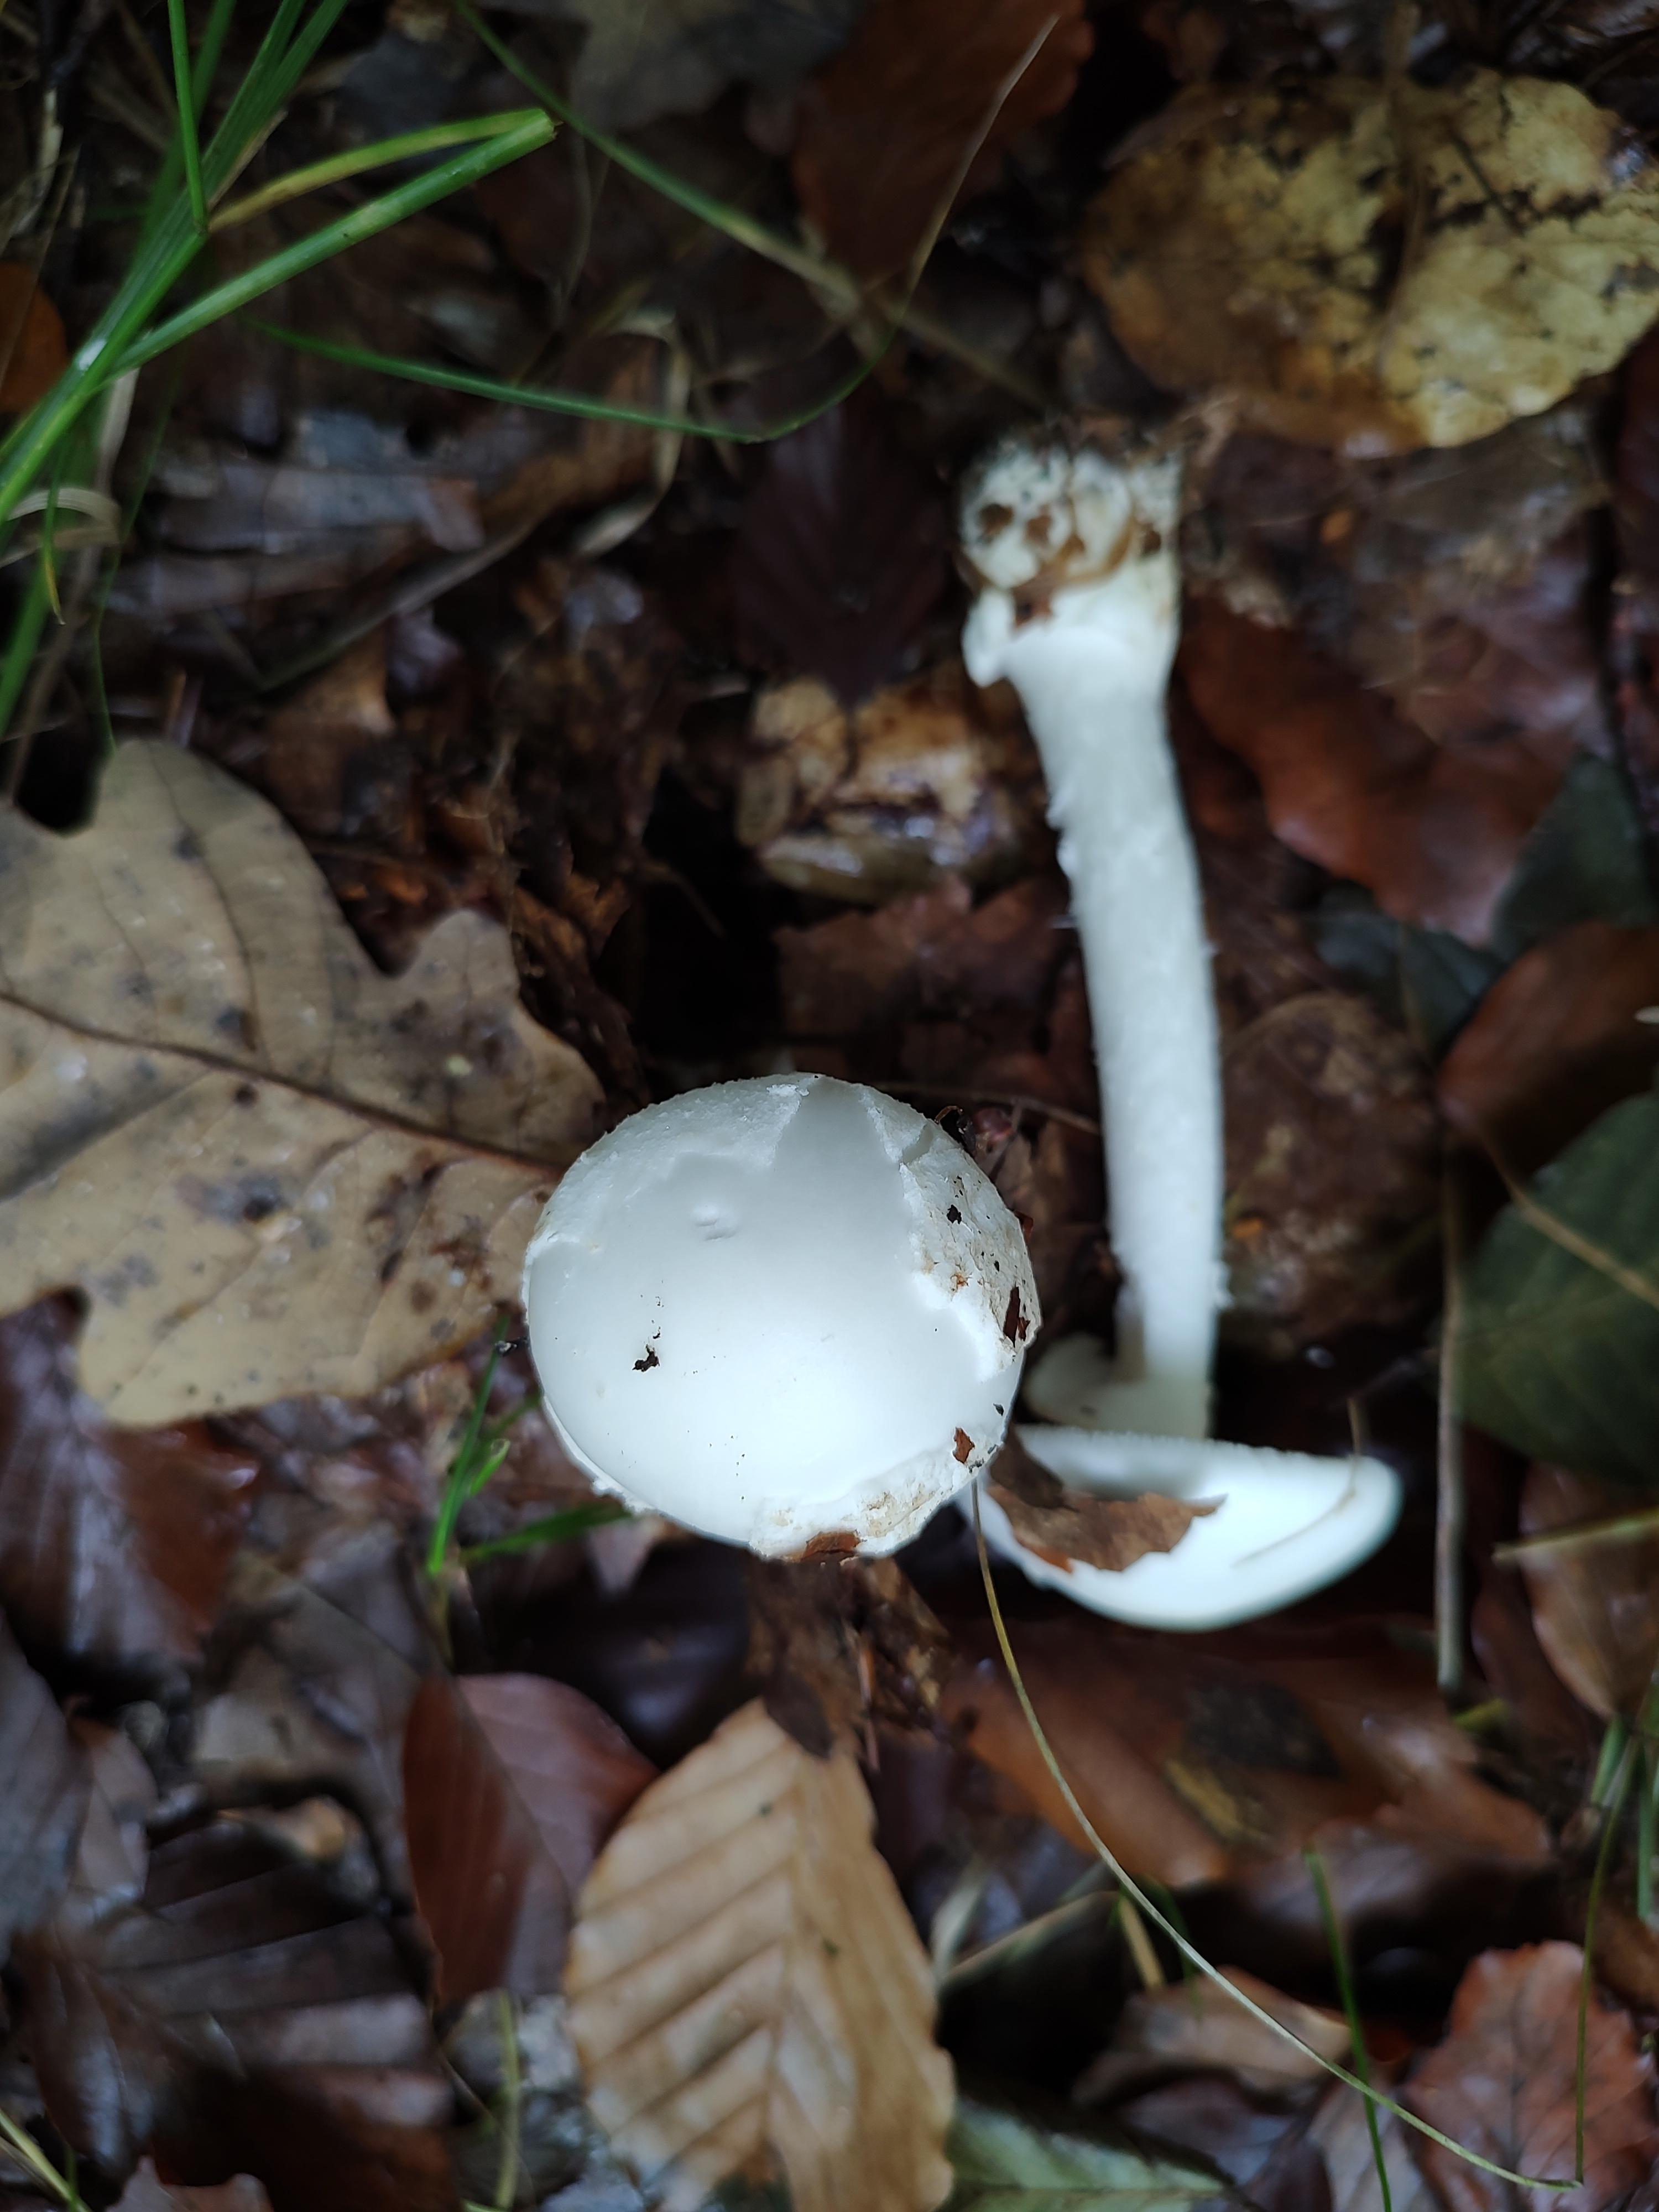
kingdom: Fungi
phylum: Basidiomycota
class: Agaricomycetes
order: Agaricales
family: Amanitaceae
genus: Amanita
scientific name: Amanita virosa
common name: snehvid fluesvamp
